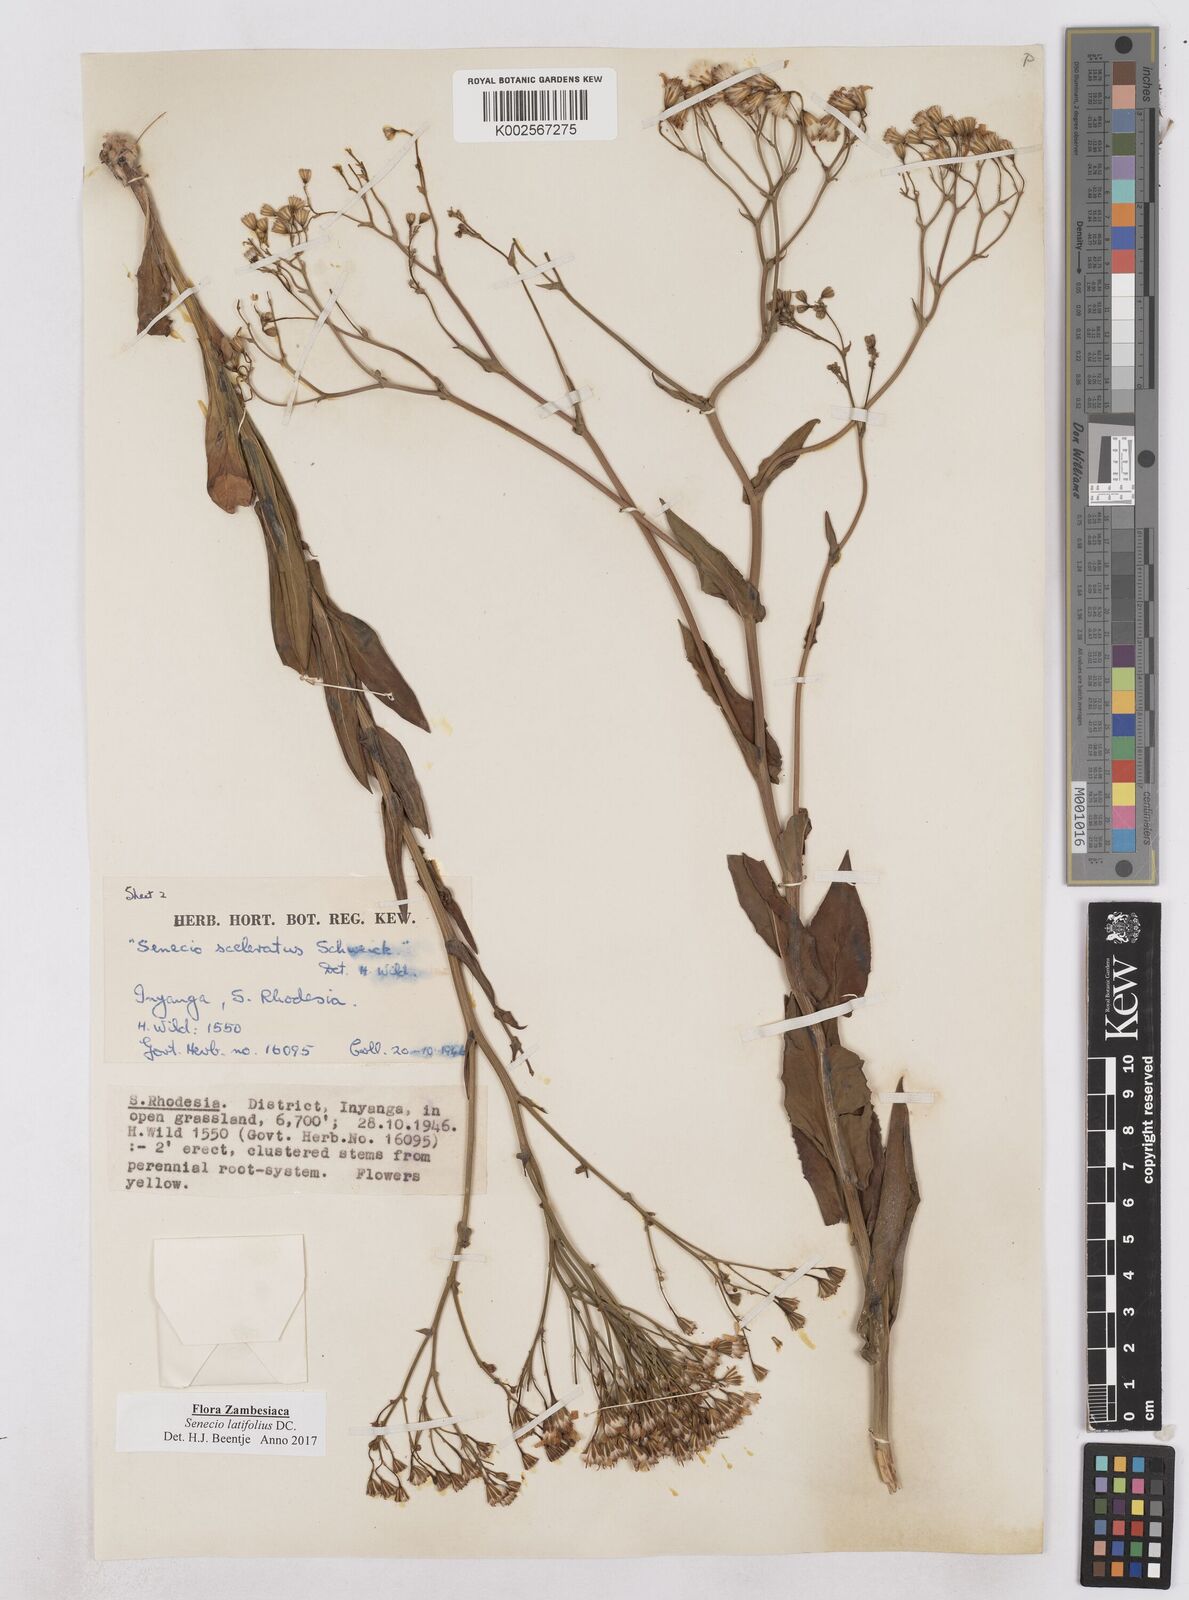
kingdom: Plantae
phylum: Tracheophyta
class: Magnoliopsida
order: Asterales
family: Asteraceae
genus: Senecio
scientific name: Senecio latifolius
